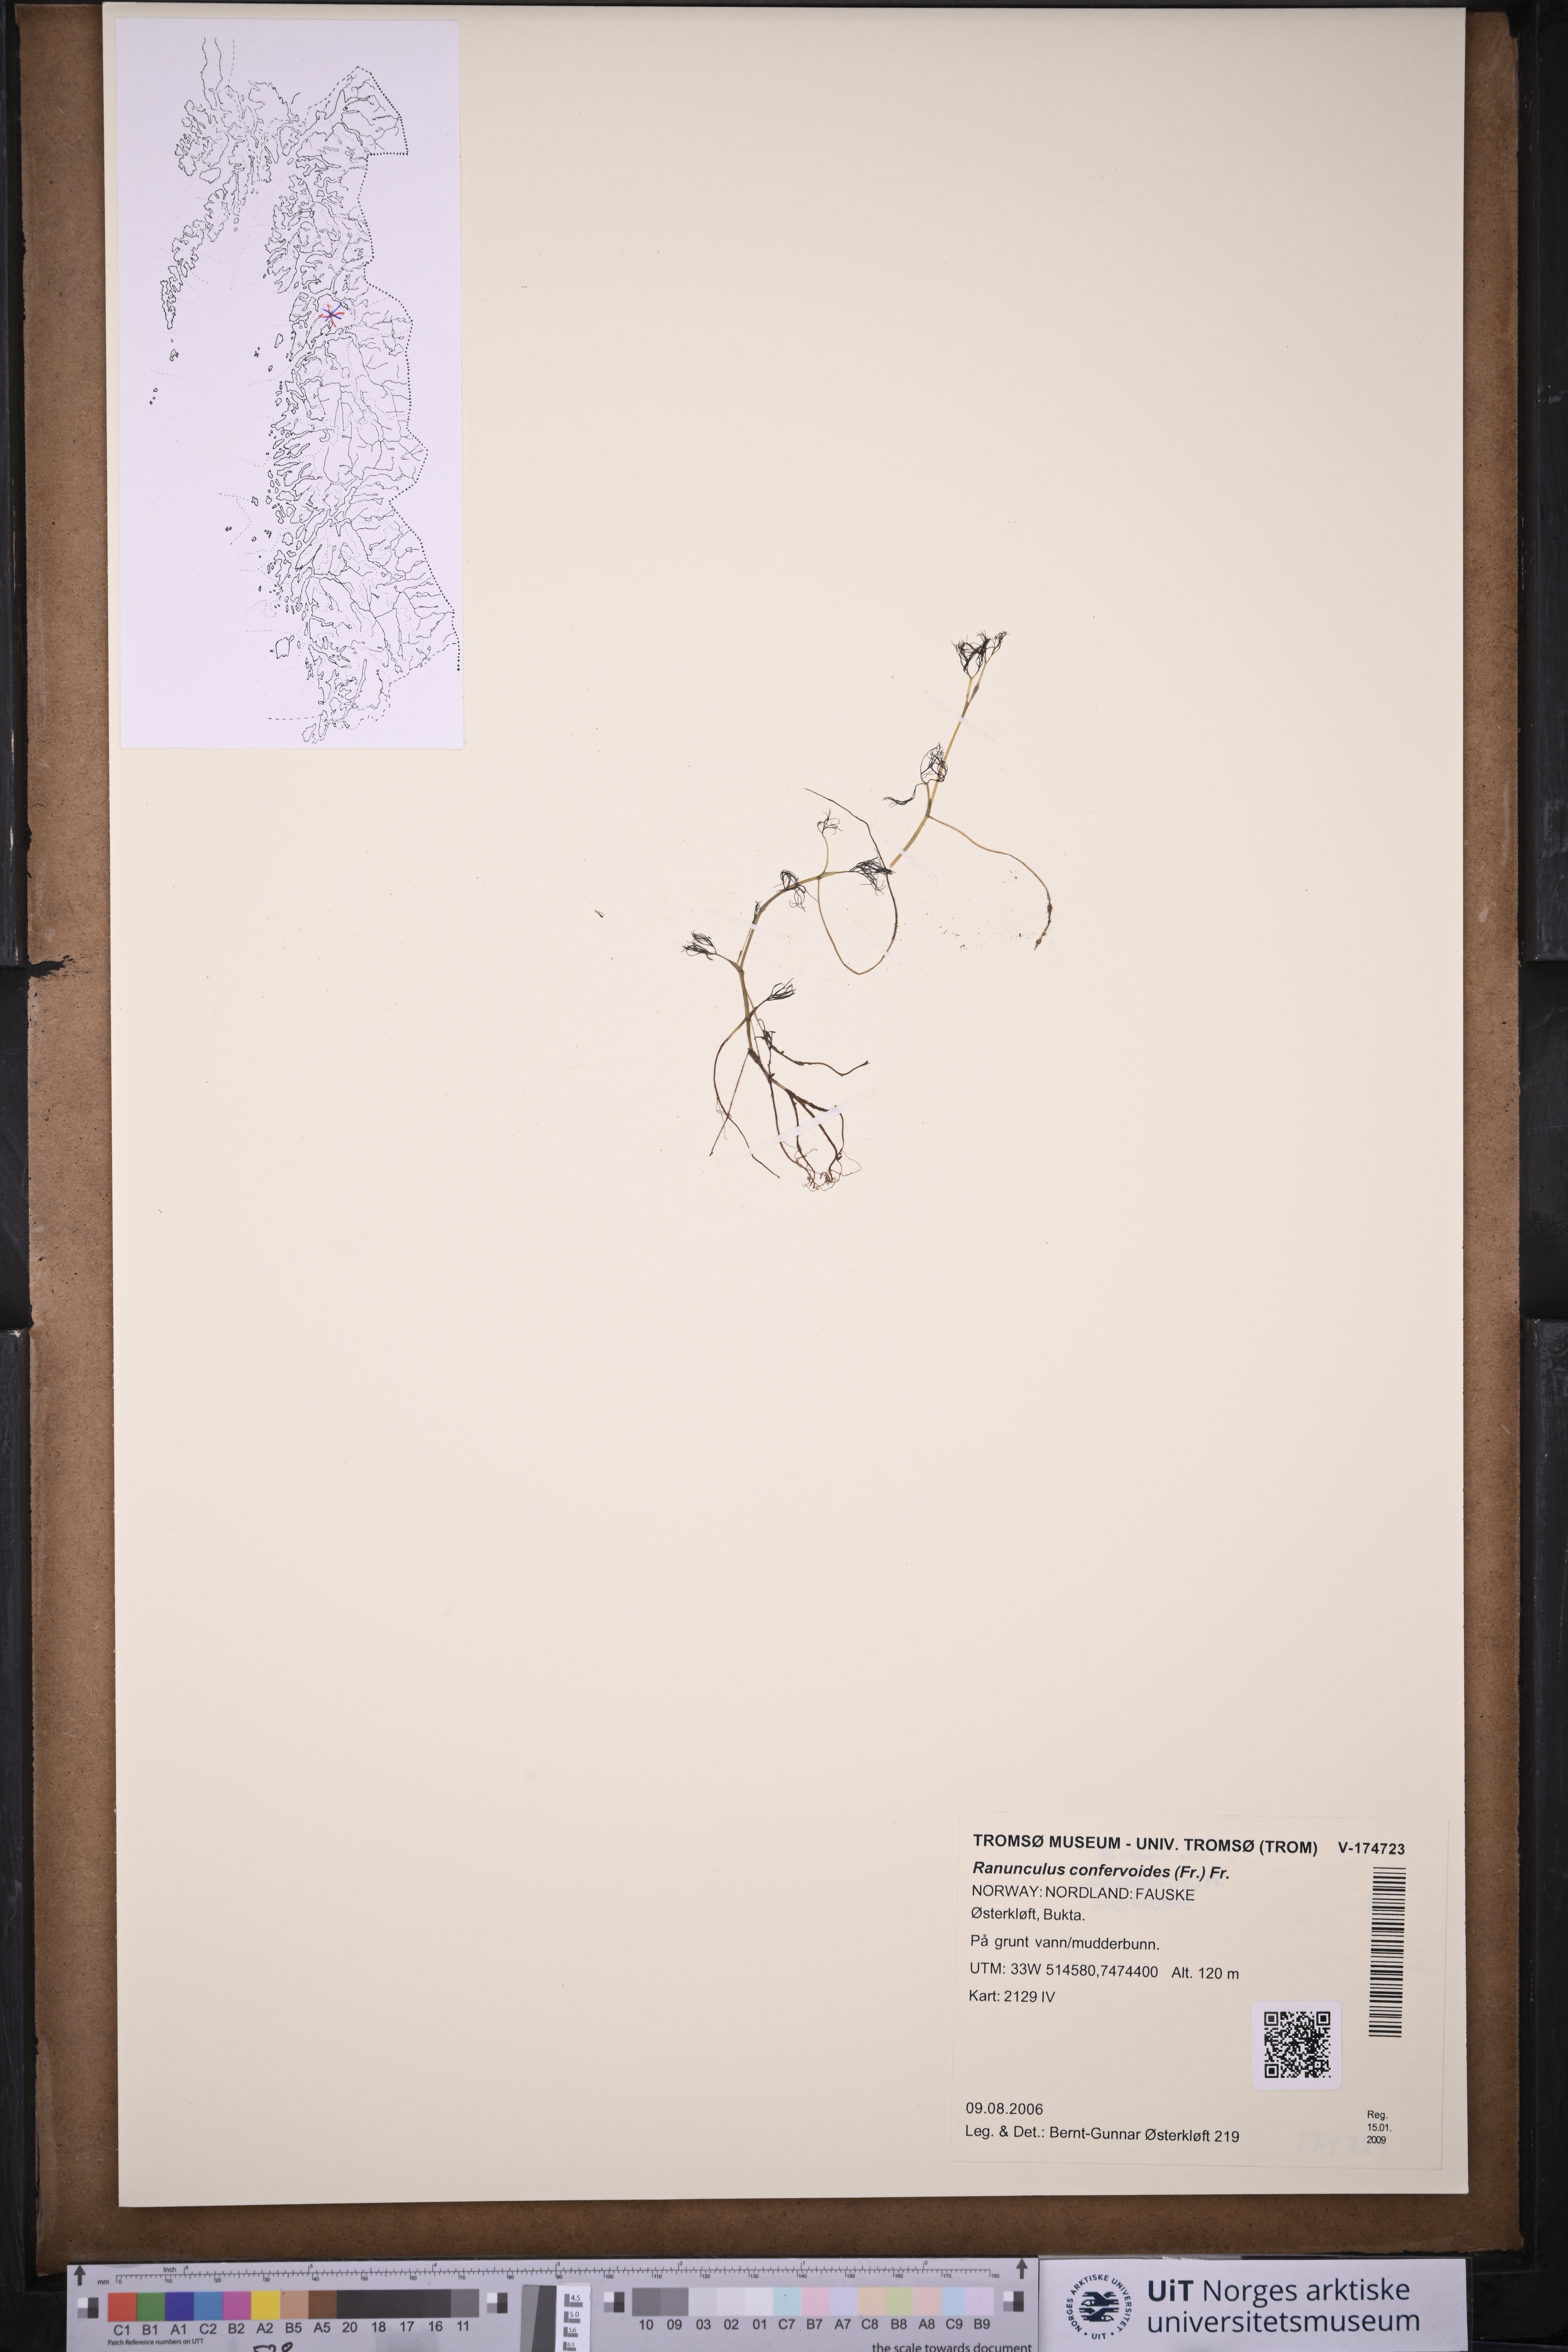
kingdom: Plantae
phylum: Tracheophyta
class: Magnoliopsida
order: Ranunculales
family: Ranunculaceae
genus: Ranunculus
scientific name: Ranunculus confervoides
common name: Delicate buttercup
